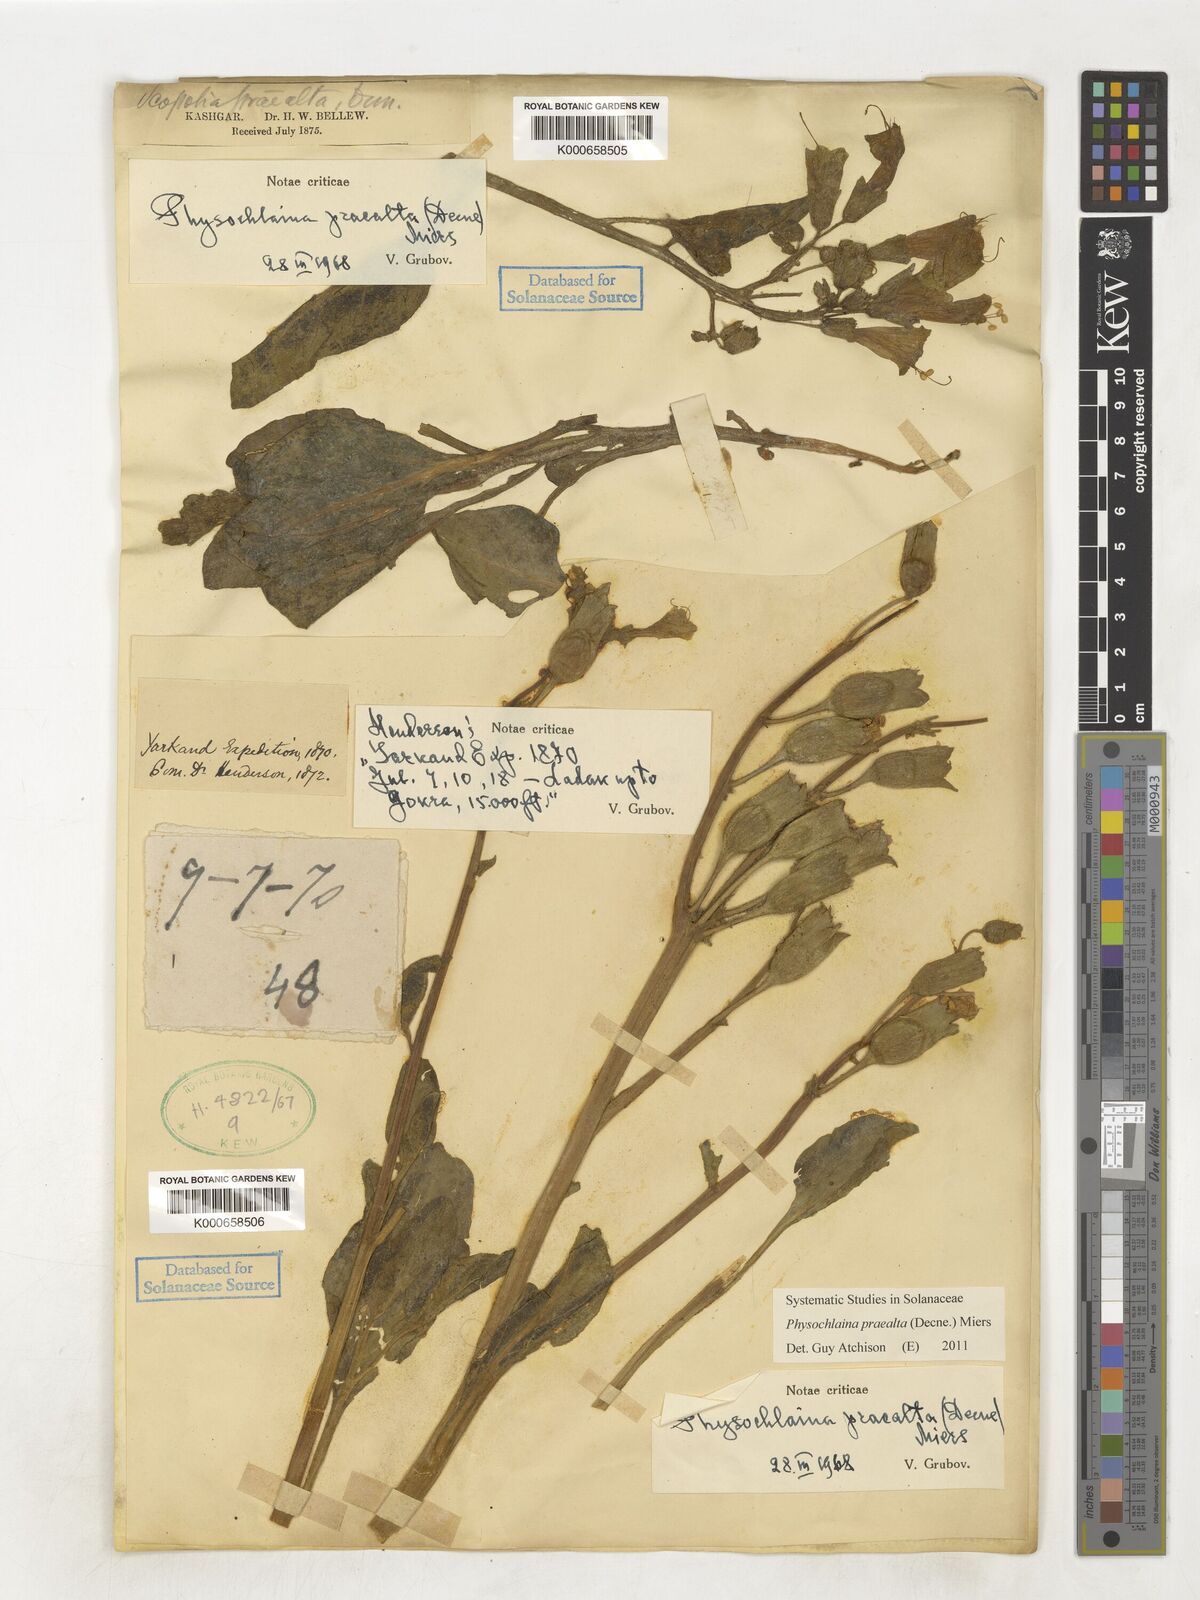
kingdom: Plantae
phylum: Tracheophyta
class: Magnoliopsida
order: Solanales
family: Solanaceae
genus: Physochlaina
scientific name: Physochlaina praealta
